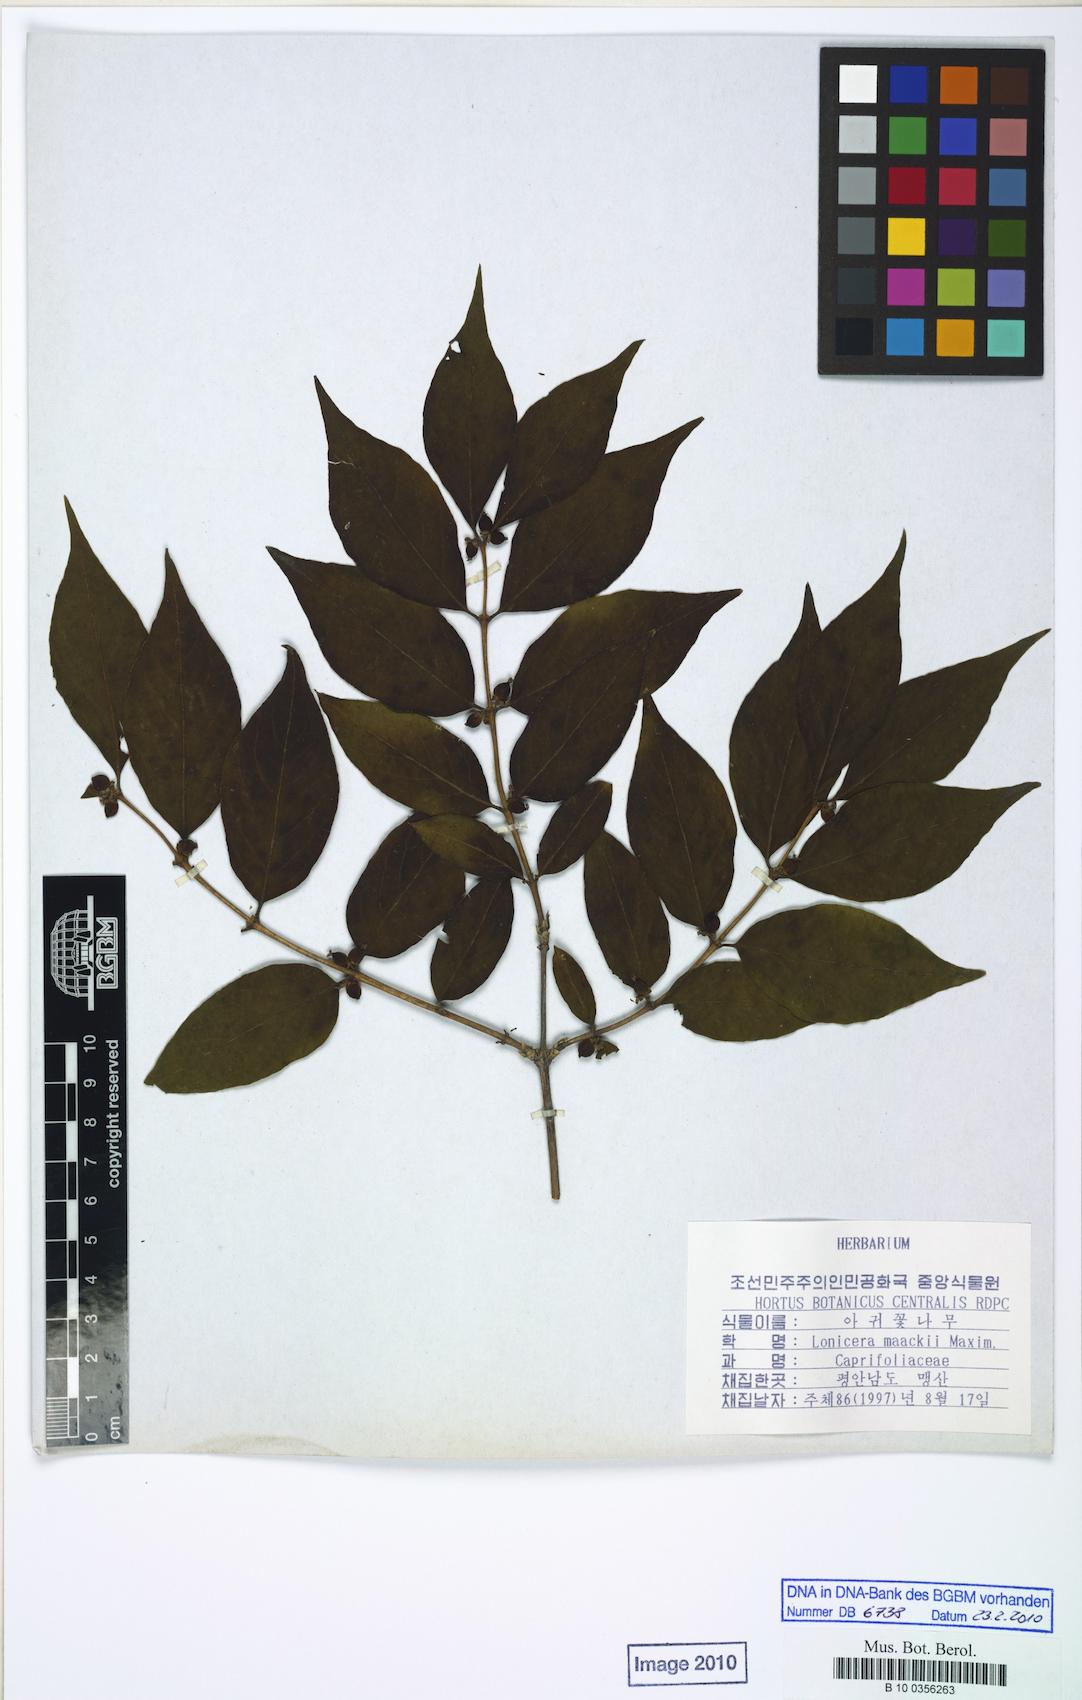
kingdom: Plantae
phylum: Tracheophyta
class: Magnoliopsida
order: Dipsacales
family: Caprifoliaceae
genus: Lonicera
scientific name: Lonicera maackii
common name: Amur honeysuckle
